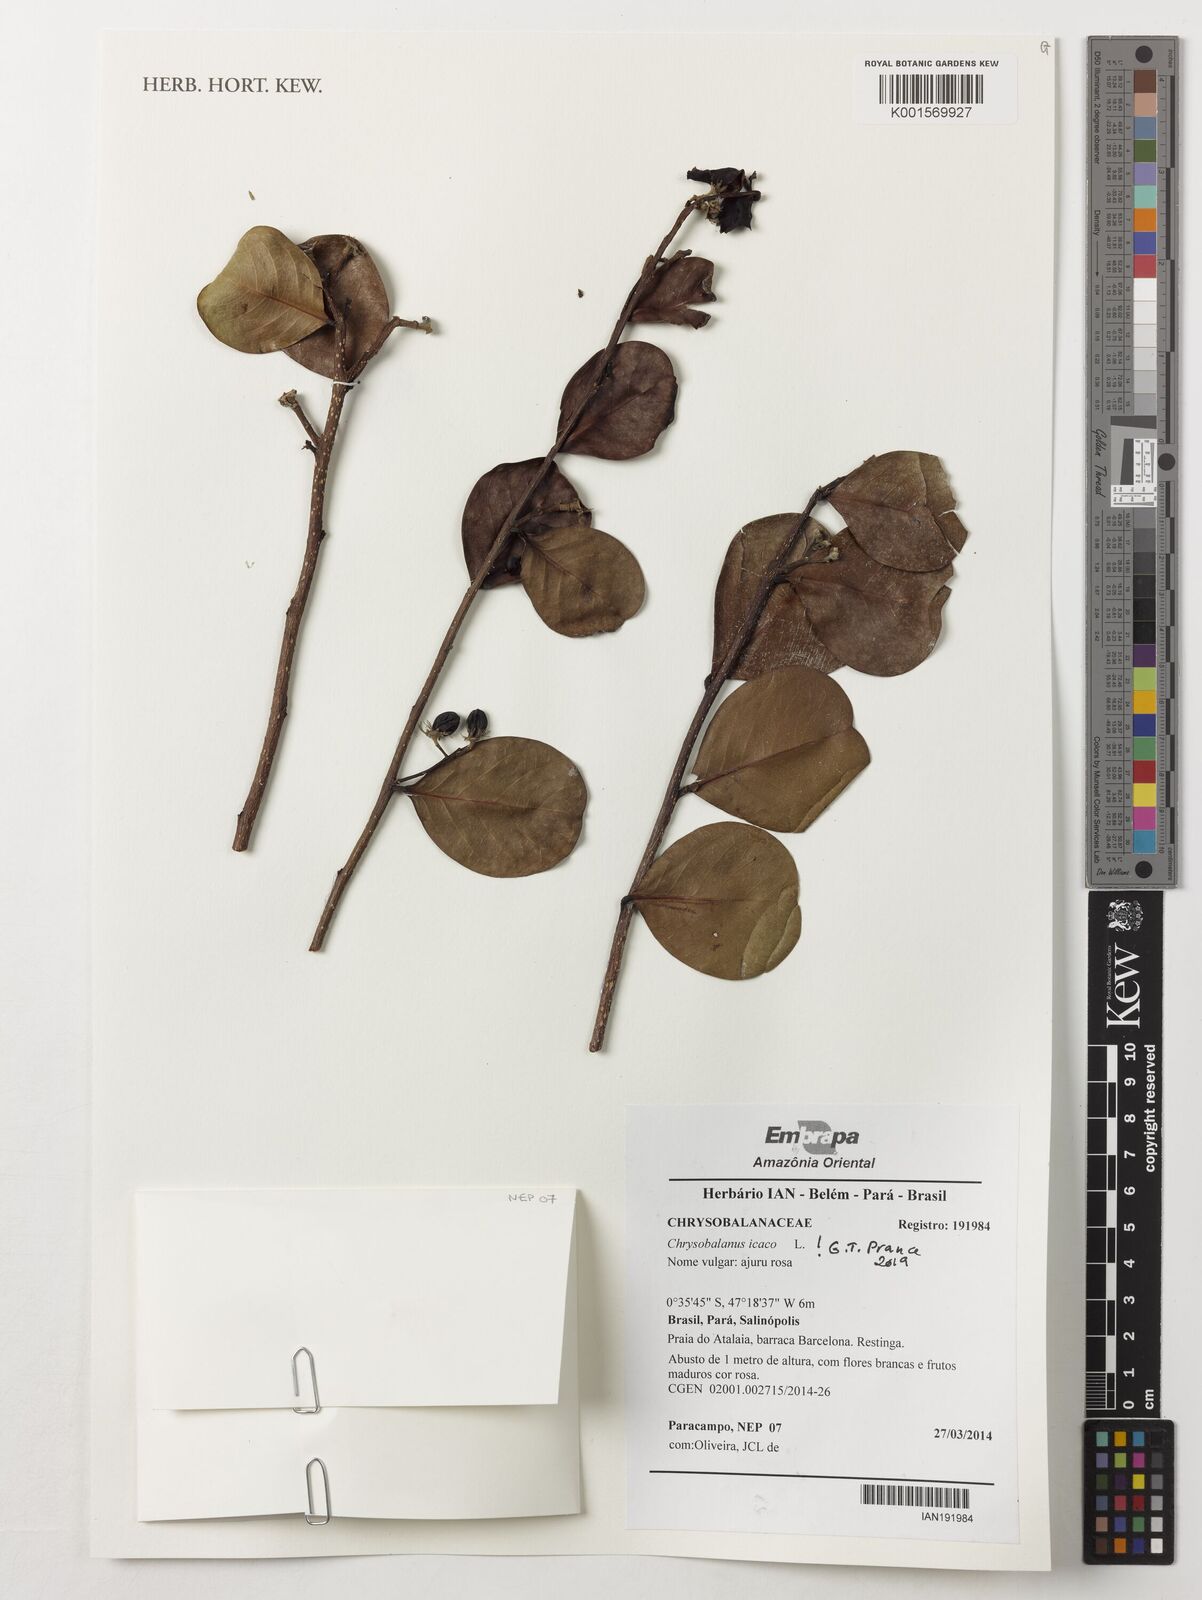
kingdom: Plantae
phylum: Tracheophyta
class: Magnoliopsida
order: Malpighiales
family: Chrysobalanaceae
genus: Chrysobalanus
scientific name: Chrysobalanus icaco
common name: Coco plum
